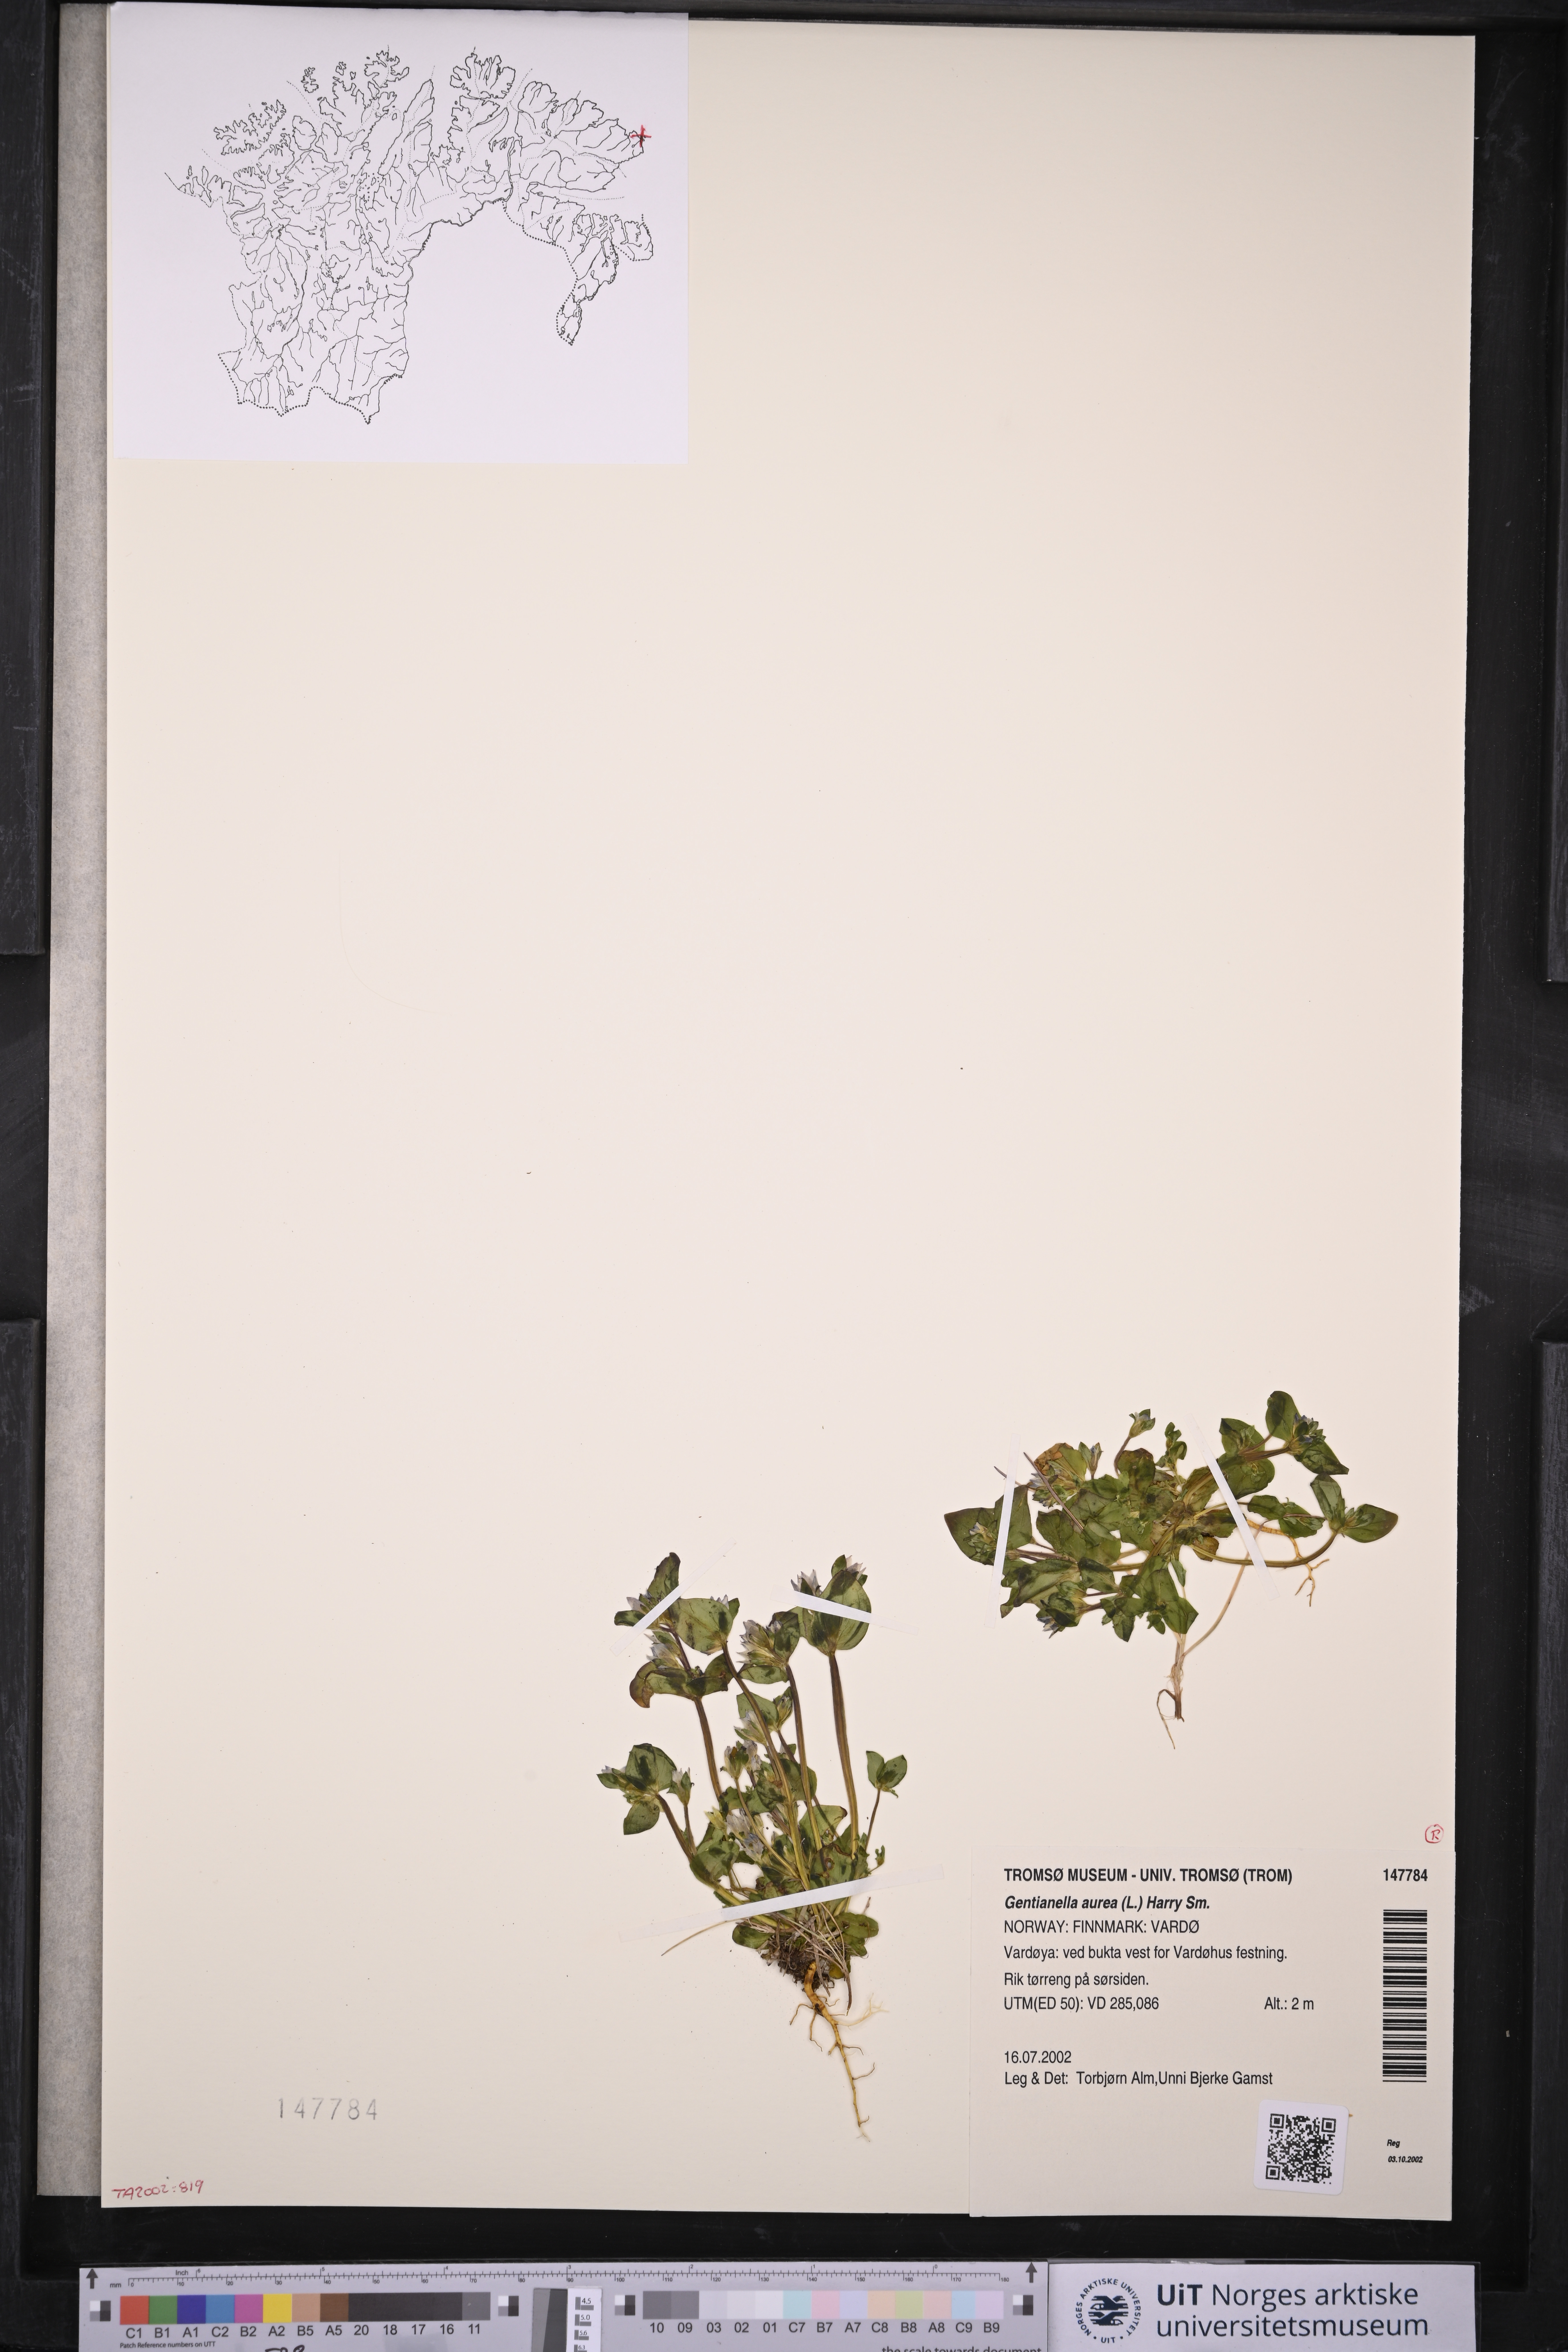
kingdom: Plantae
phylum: Tracheophyta
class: Magnoliopsida
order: Gentianales
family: Gentianaceae
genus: Gentianella
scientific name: Gentianella aurea
